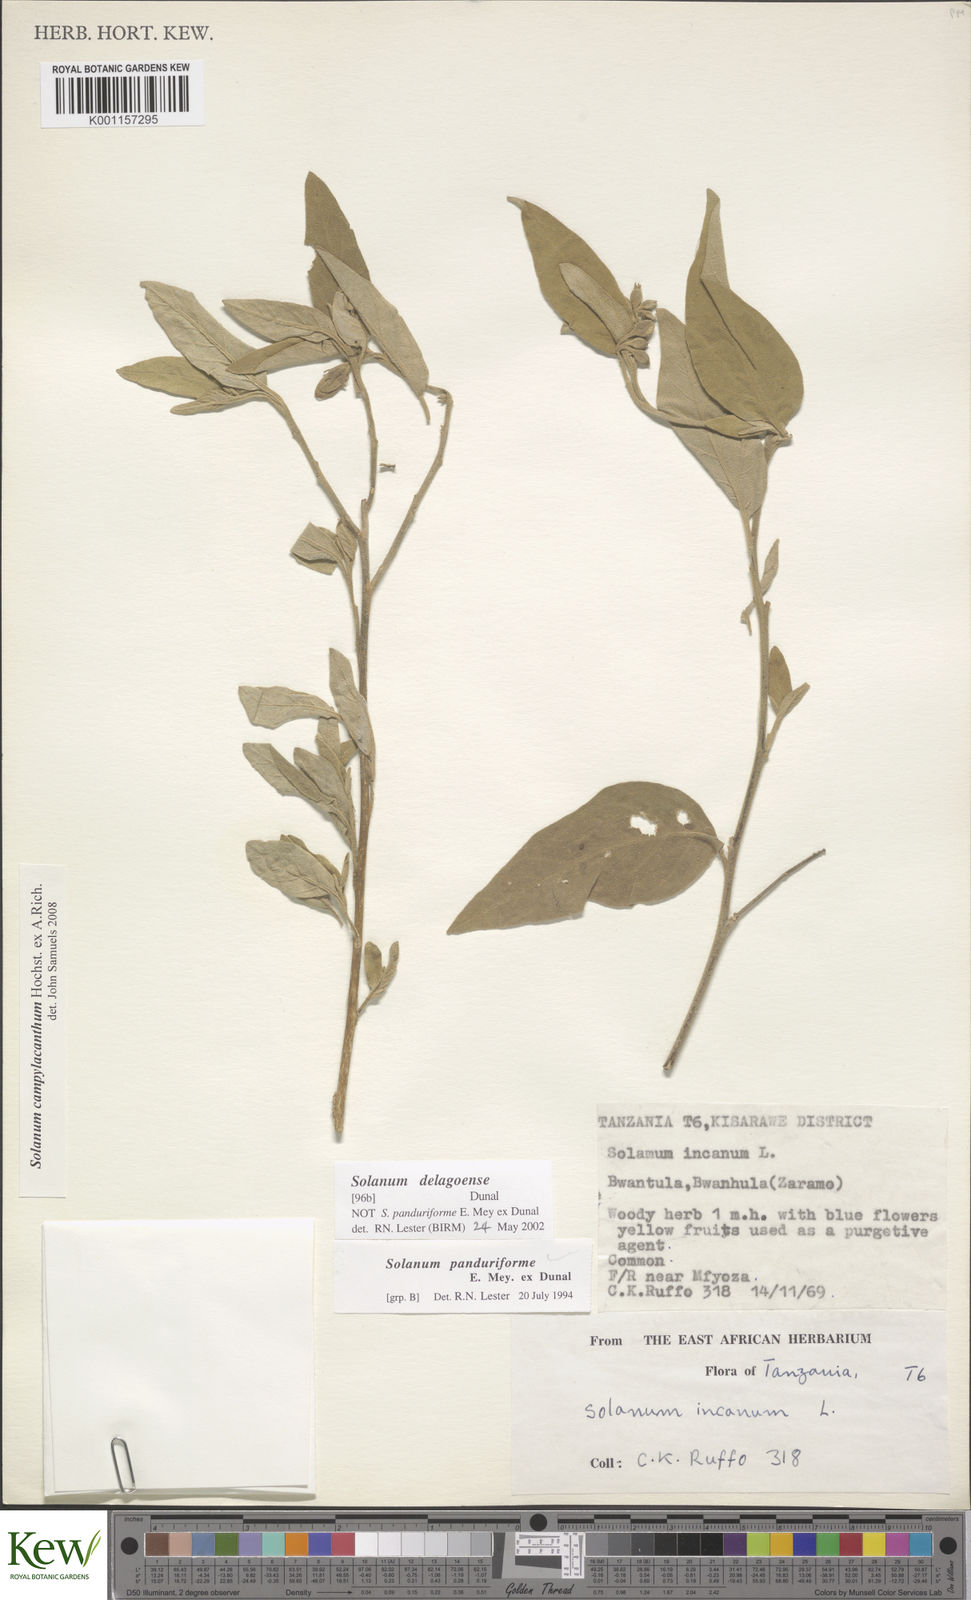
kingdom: Plantae
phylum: Tracheophyta
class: Magnoliopsida
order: Solanales
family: Solanaceae
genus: Solanum
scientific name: Solanum campylacanthum
